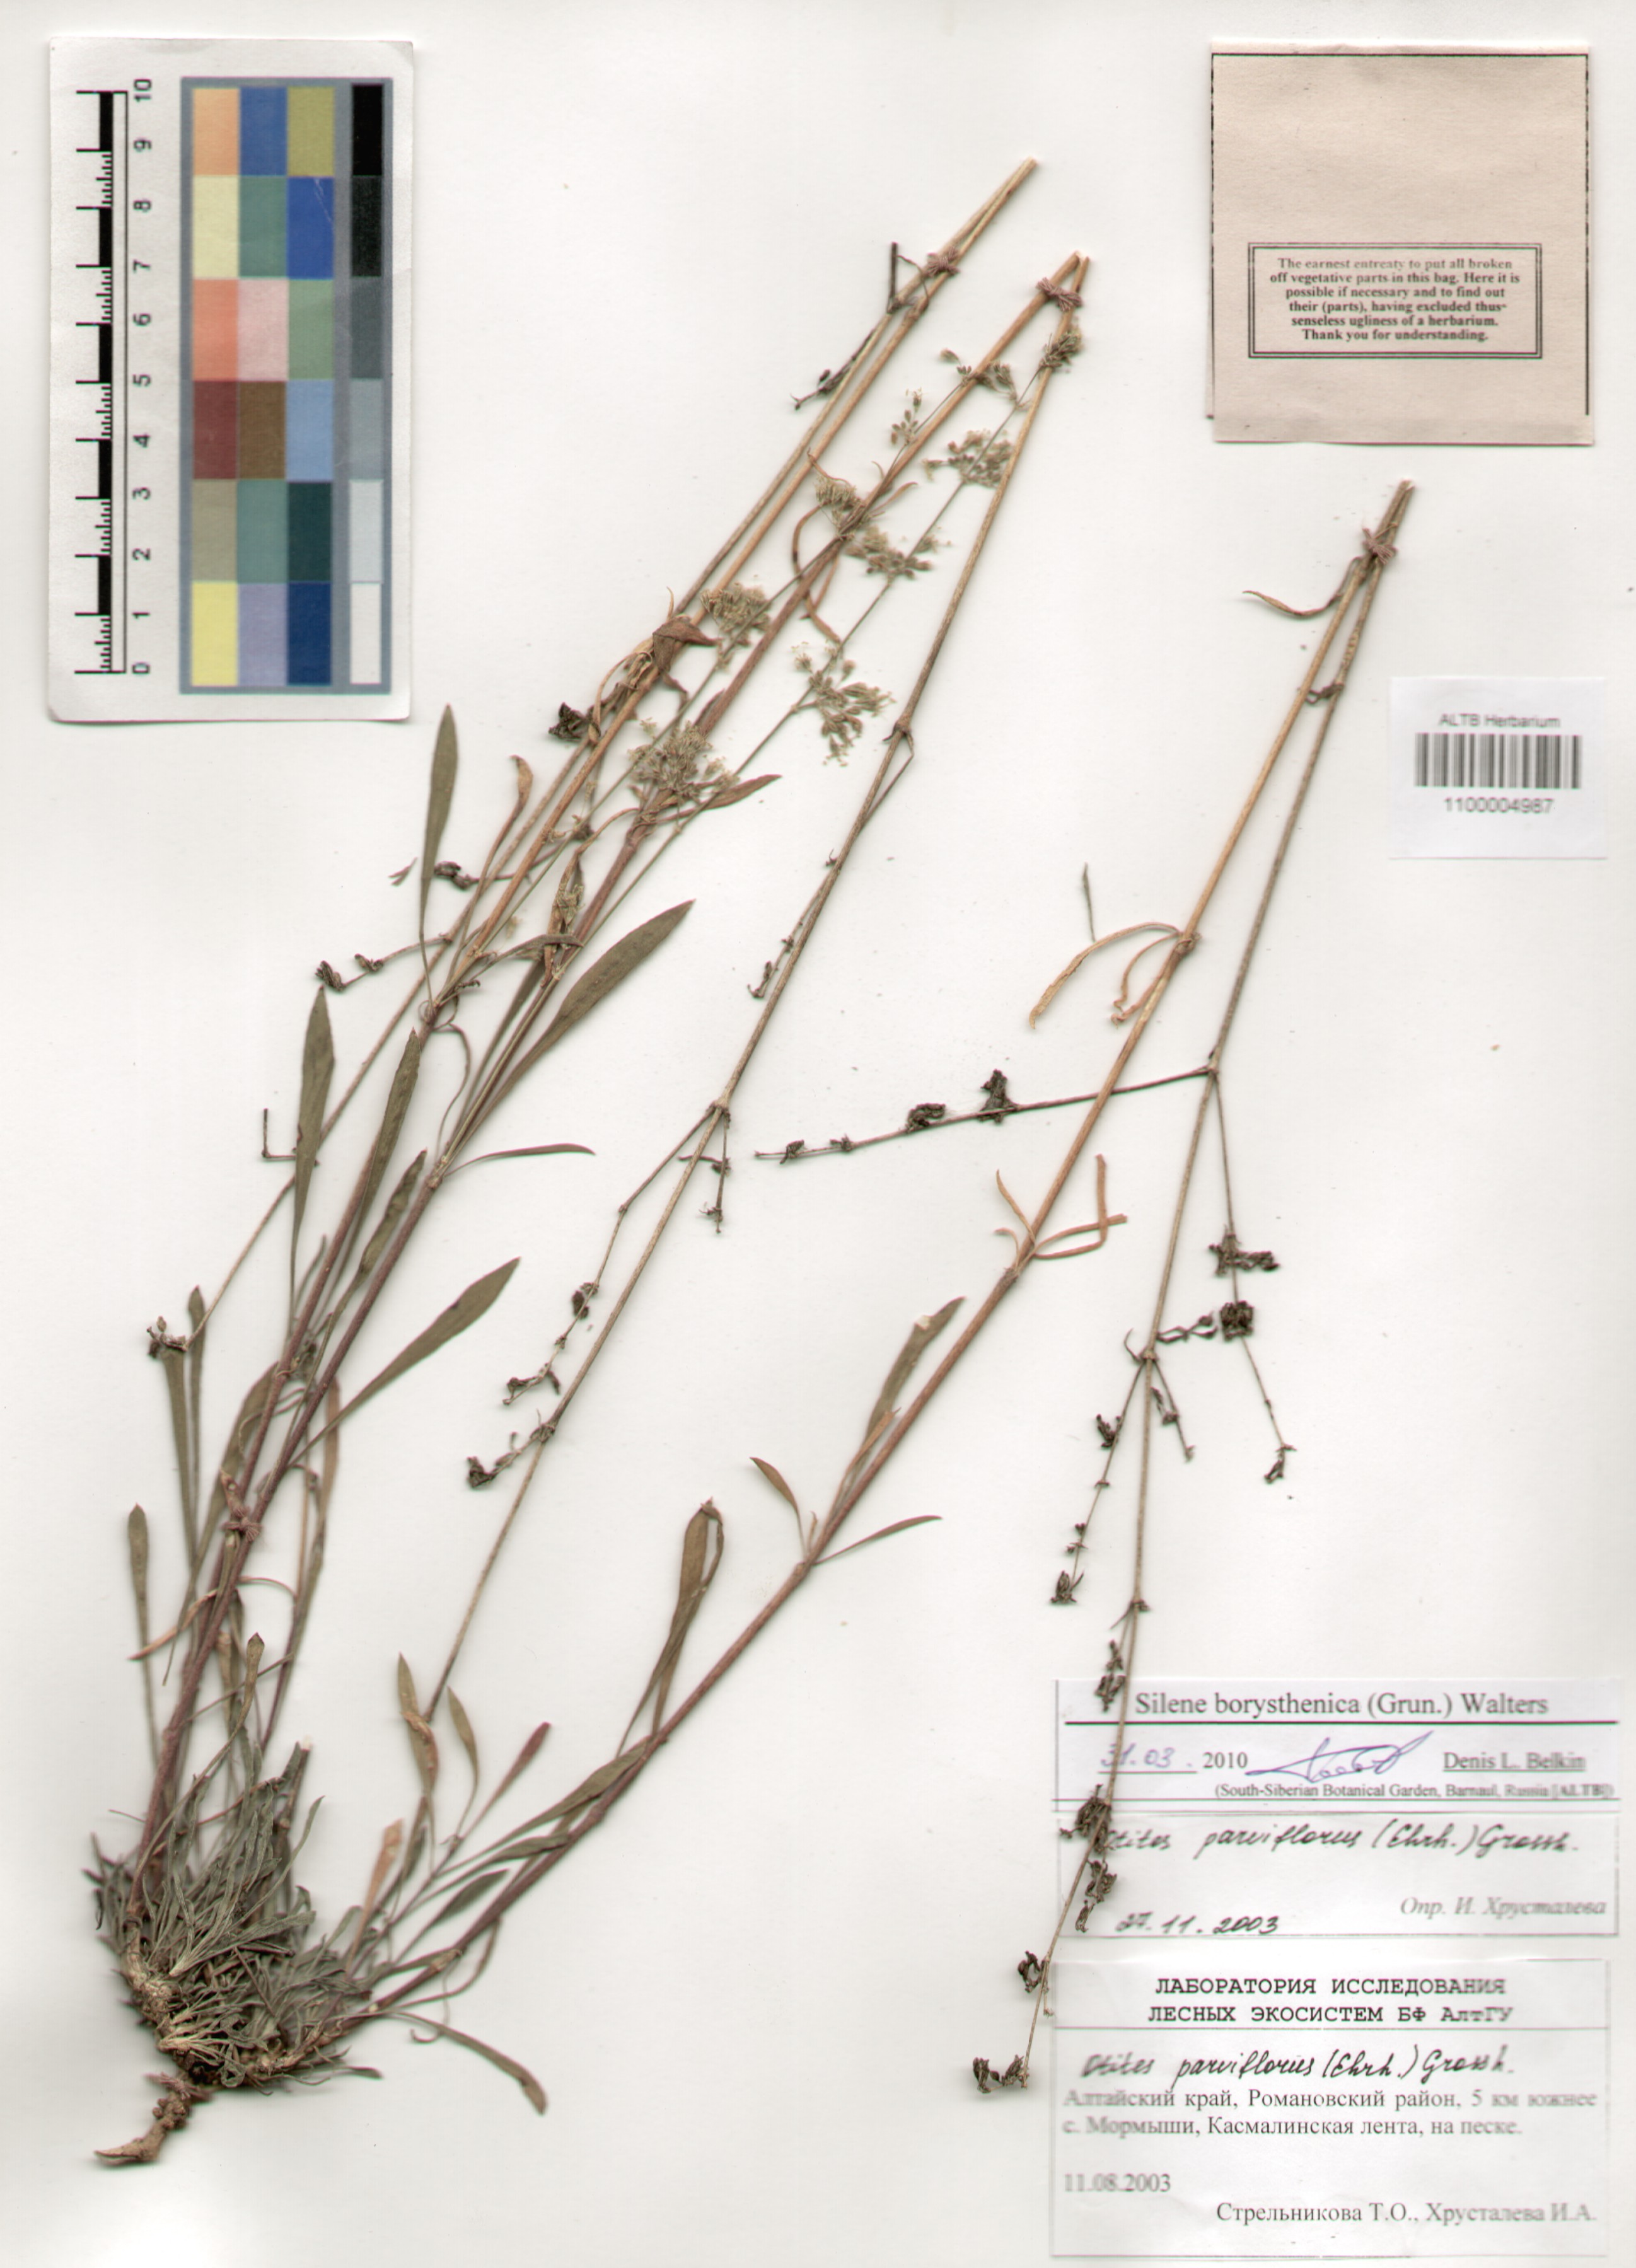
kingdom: Plantae
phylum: Tracheophyta
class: Magnoliopsida
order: Caryophyllales
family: Caryophyllaceae
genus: Silene
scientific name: Silene borysthenica
